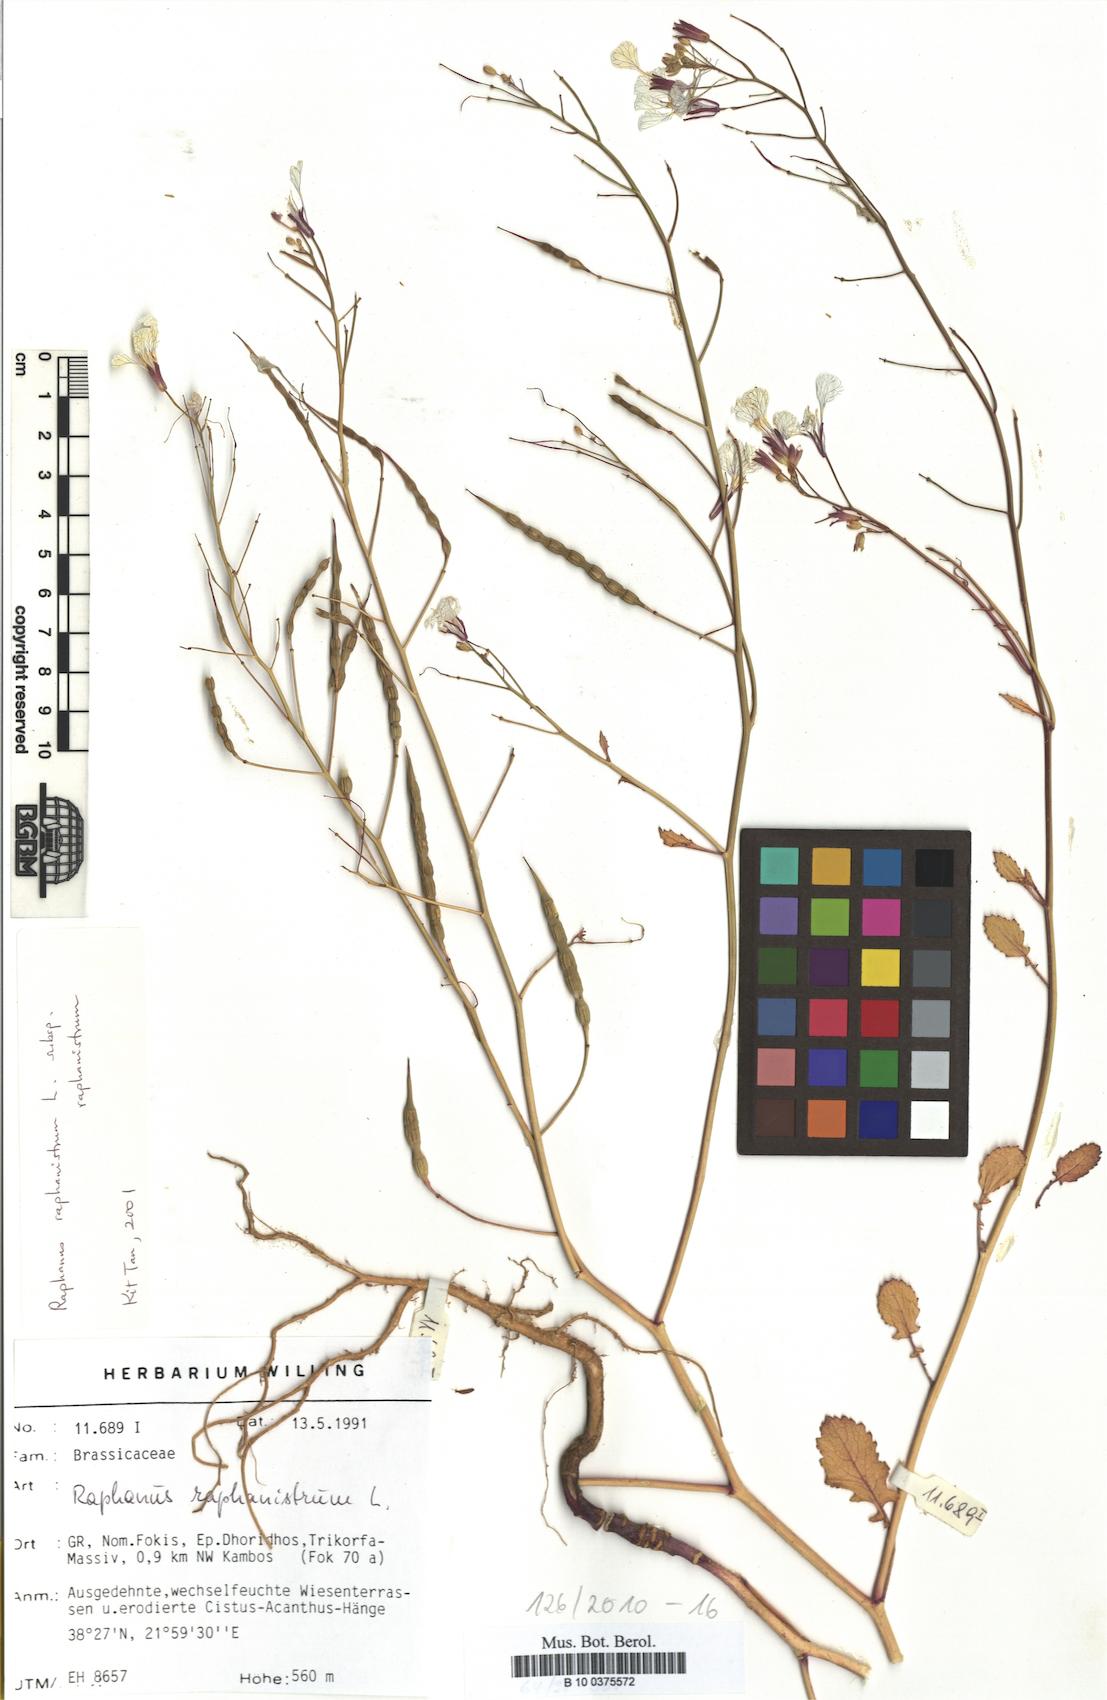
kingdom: Plantae
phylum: Tracheophyta
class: Magnoliopsida
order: Brassicales
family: Brassicaceae
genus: Raphanus
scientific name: Raphanus raphanistrum
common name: Wild radish
